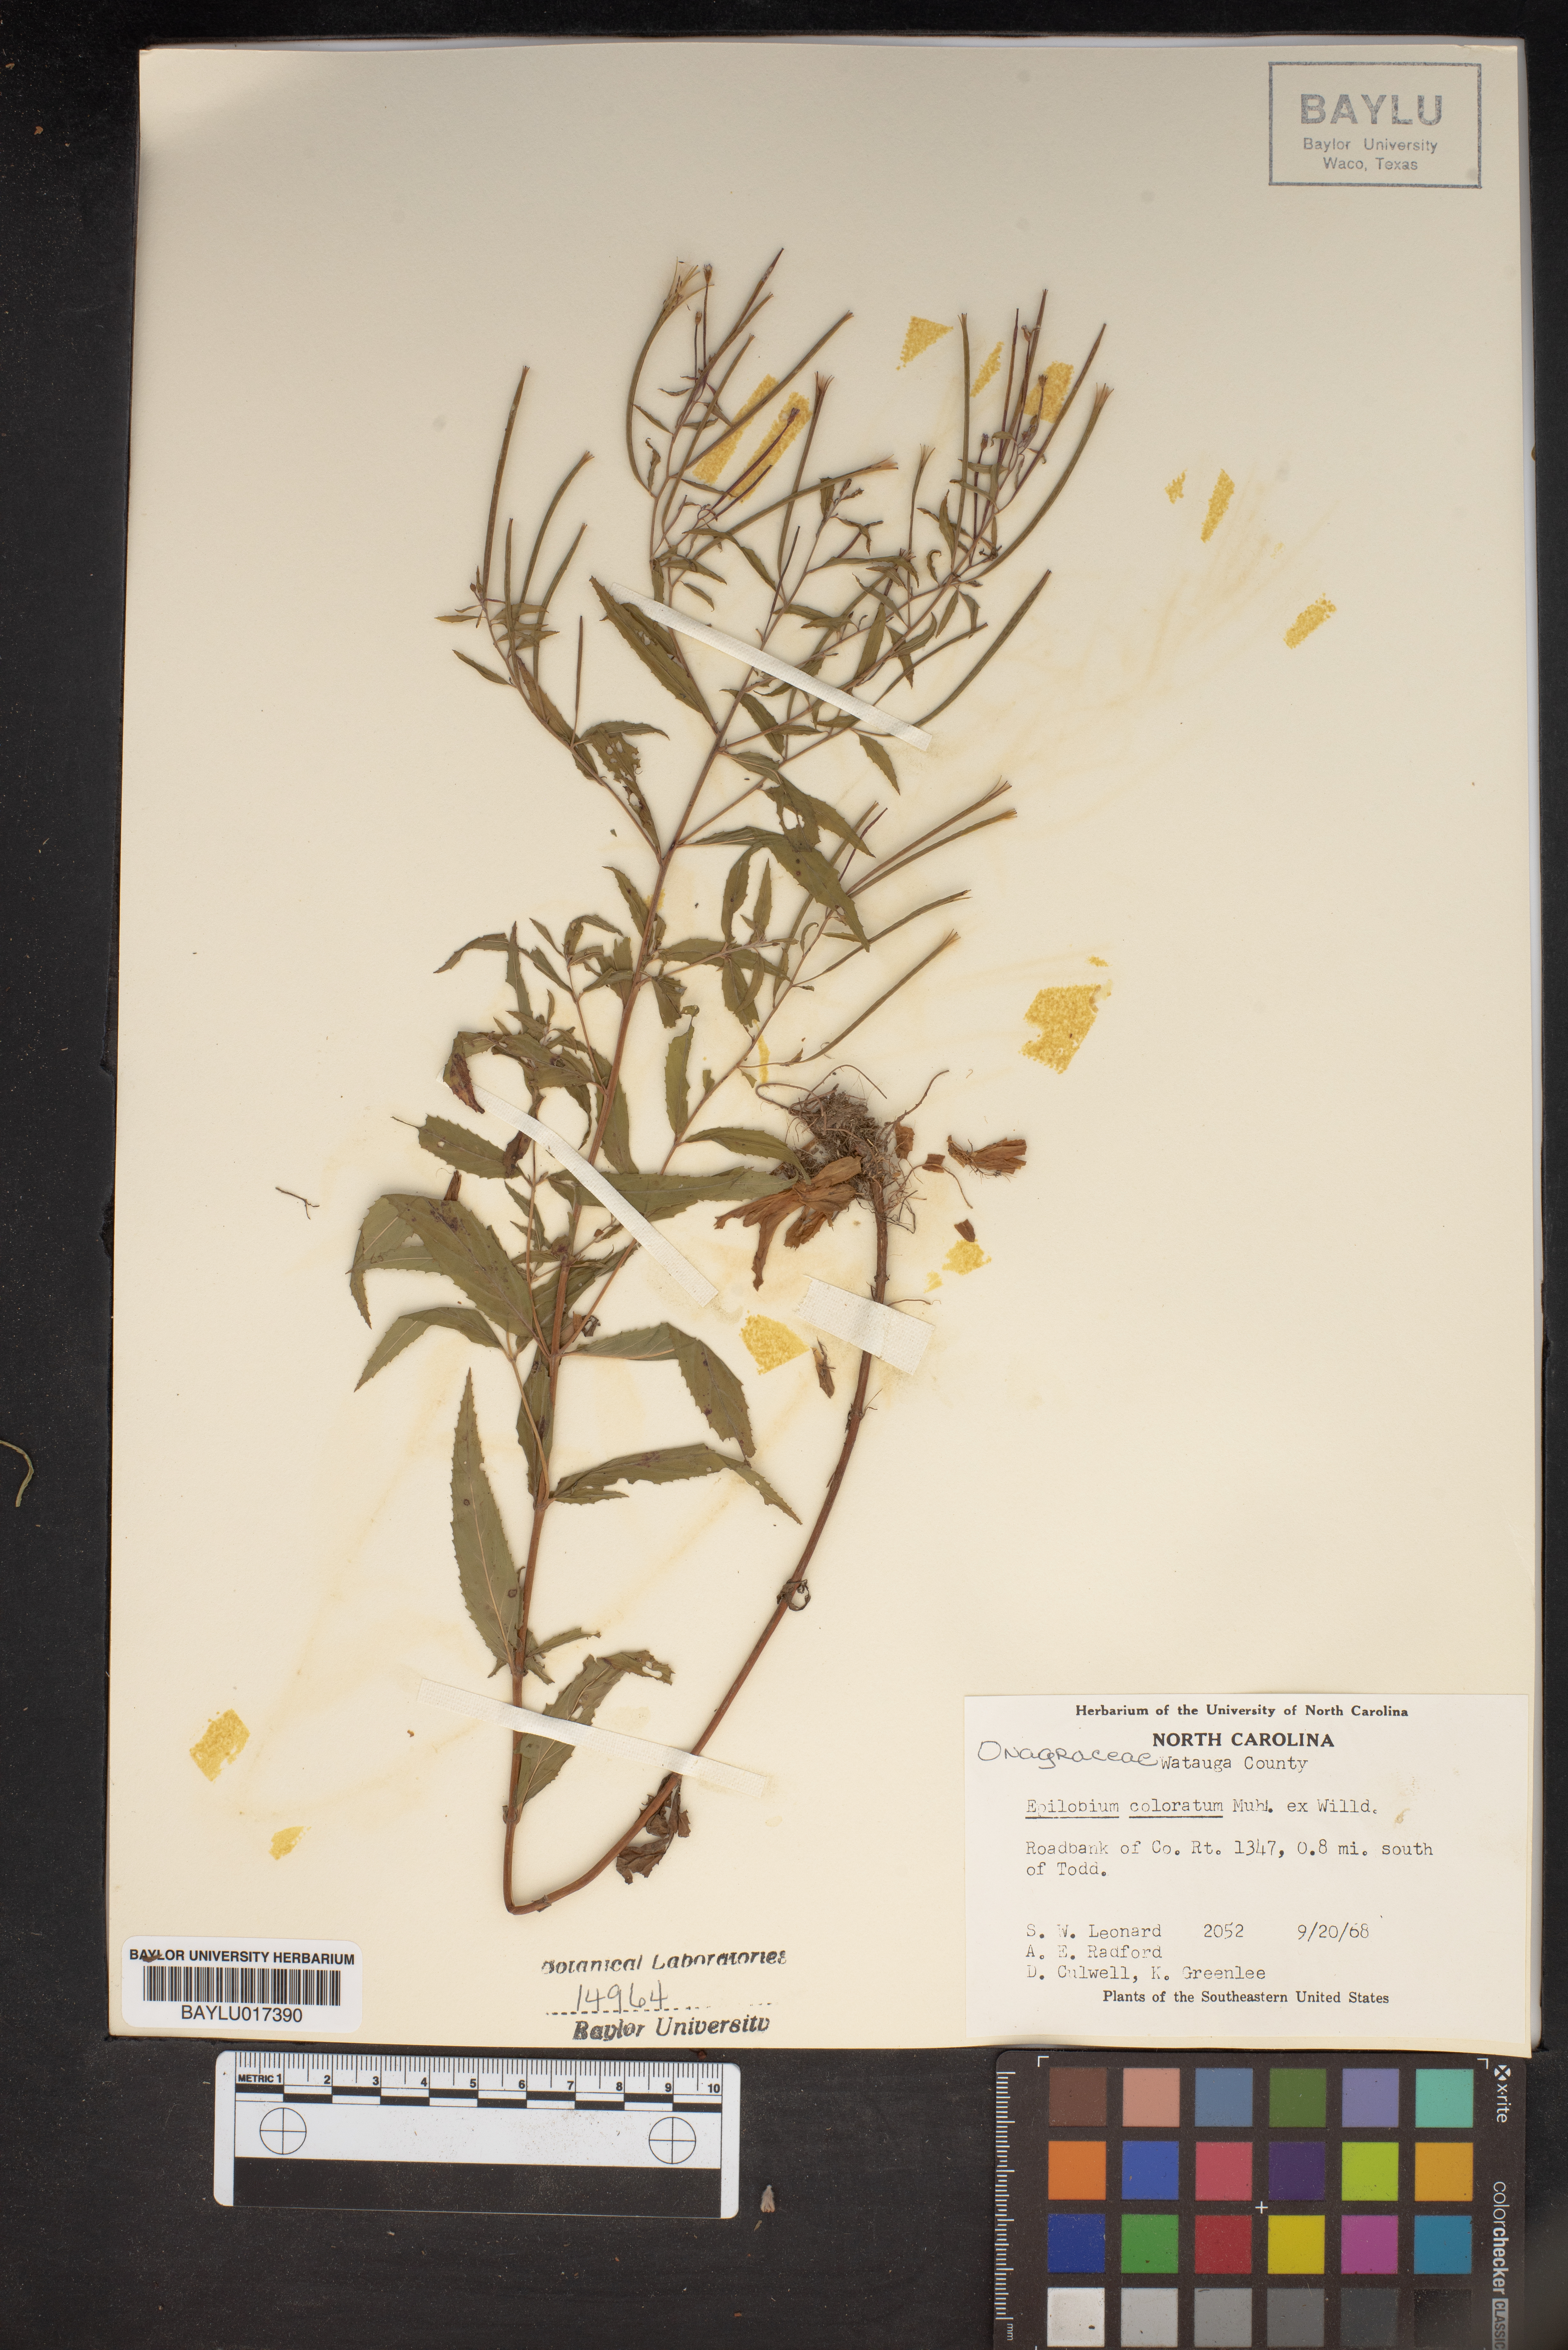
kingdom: Plantae
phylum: Tracheophyta
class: Magnoliopsida
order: Myrtales
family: Onagraceae
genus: Epilobium
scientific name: Epilobium coloratum
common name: Bronze willowherb
